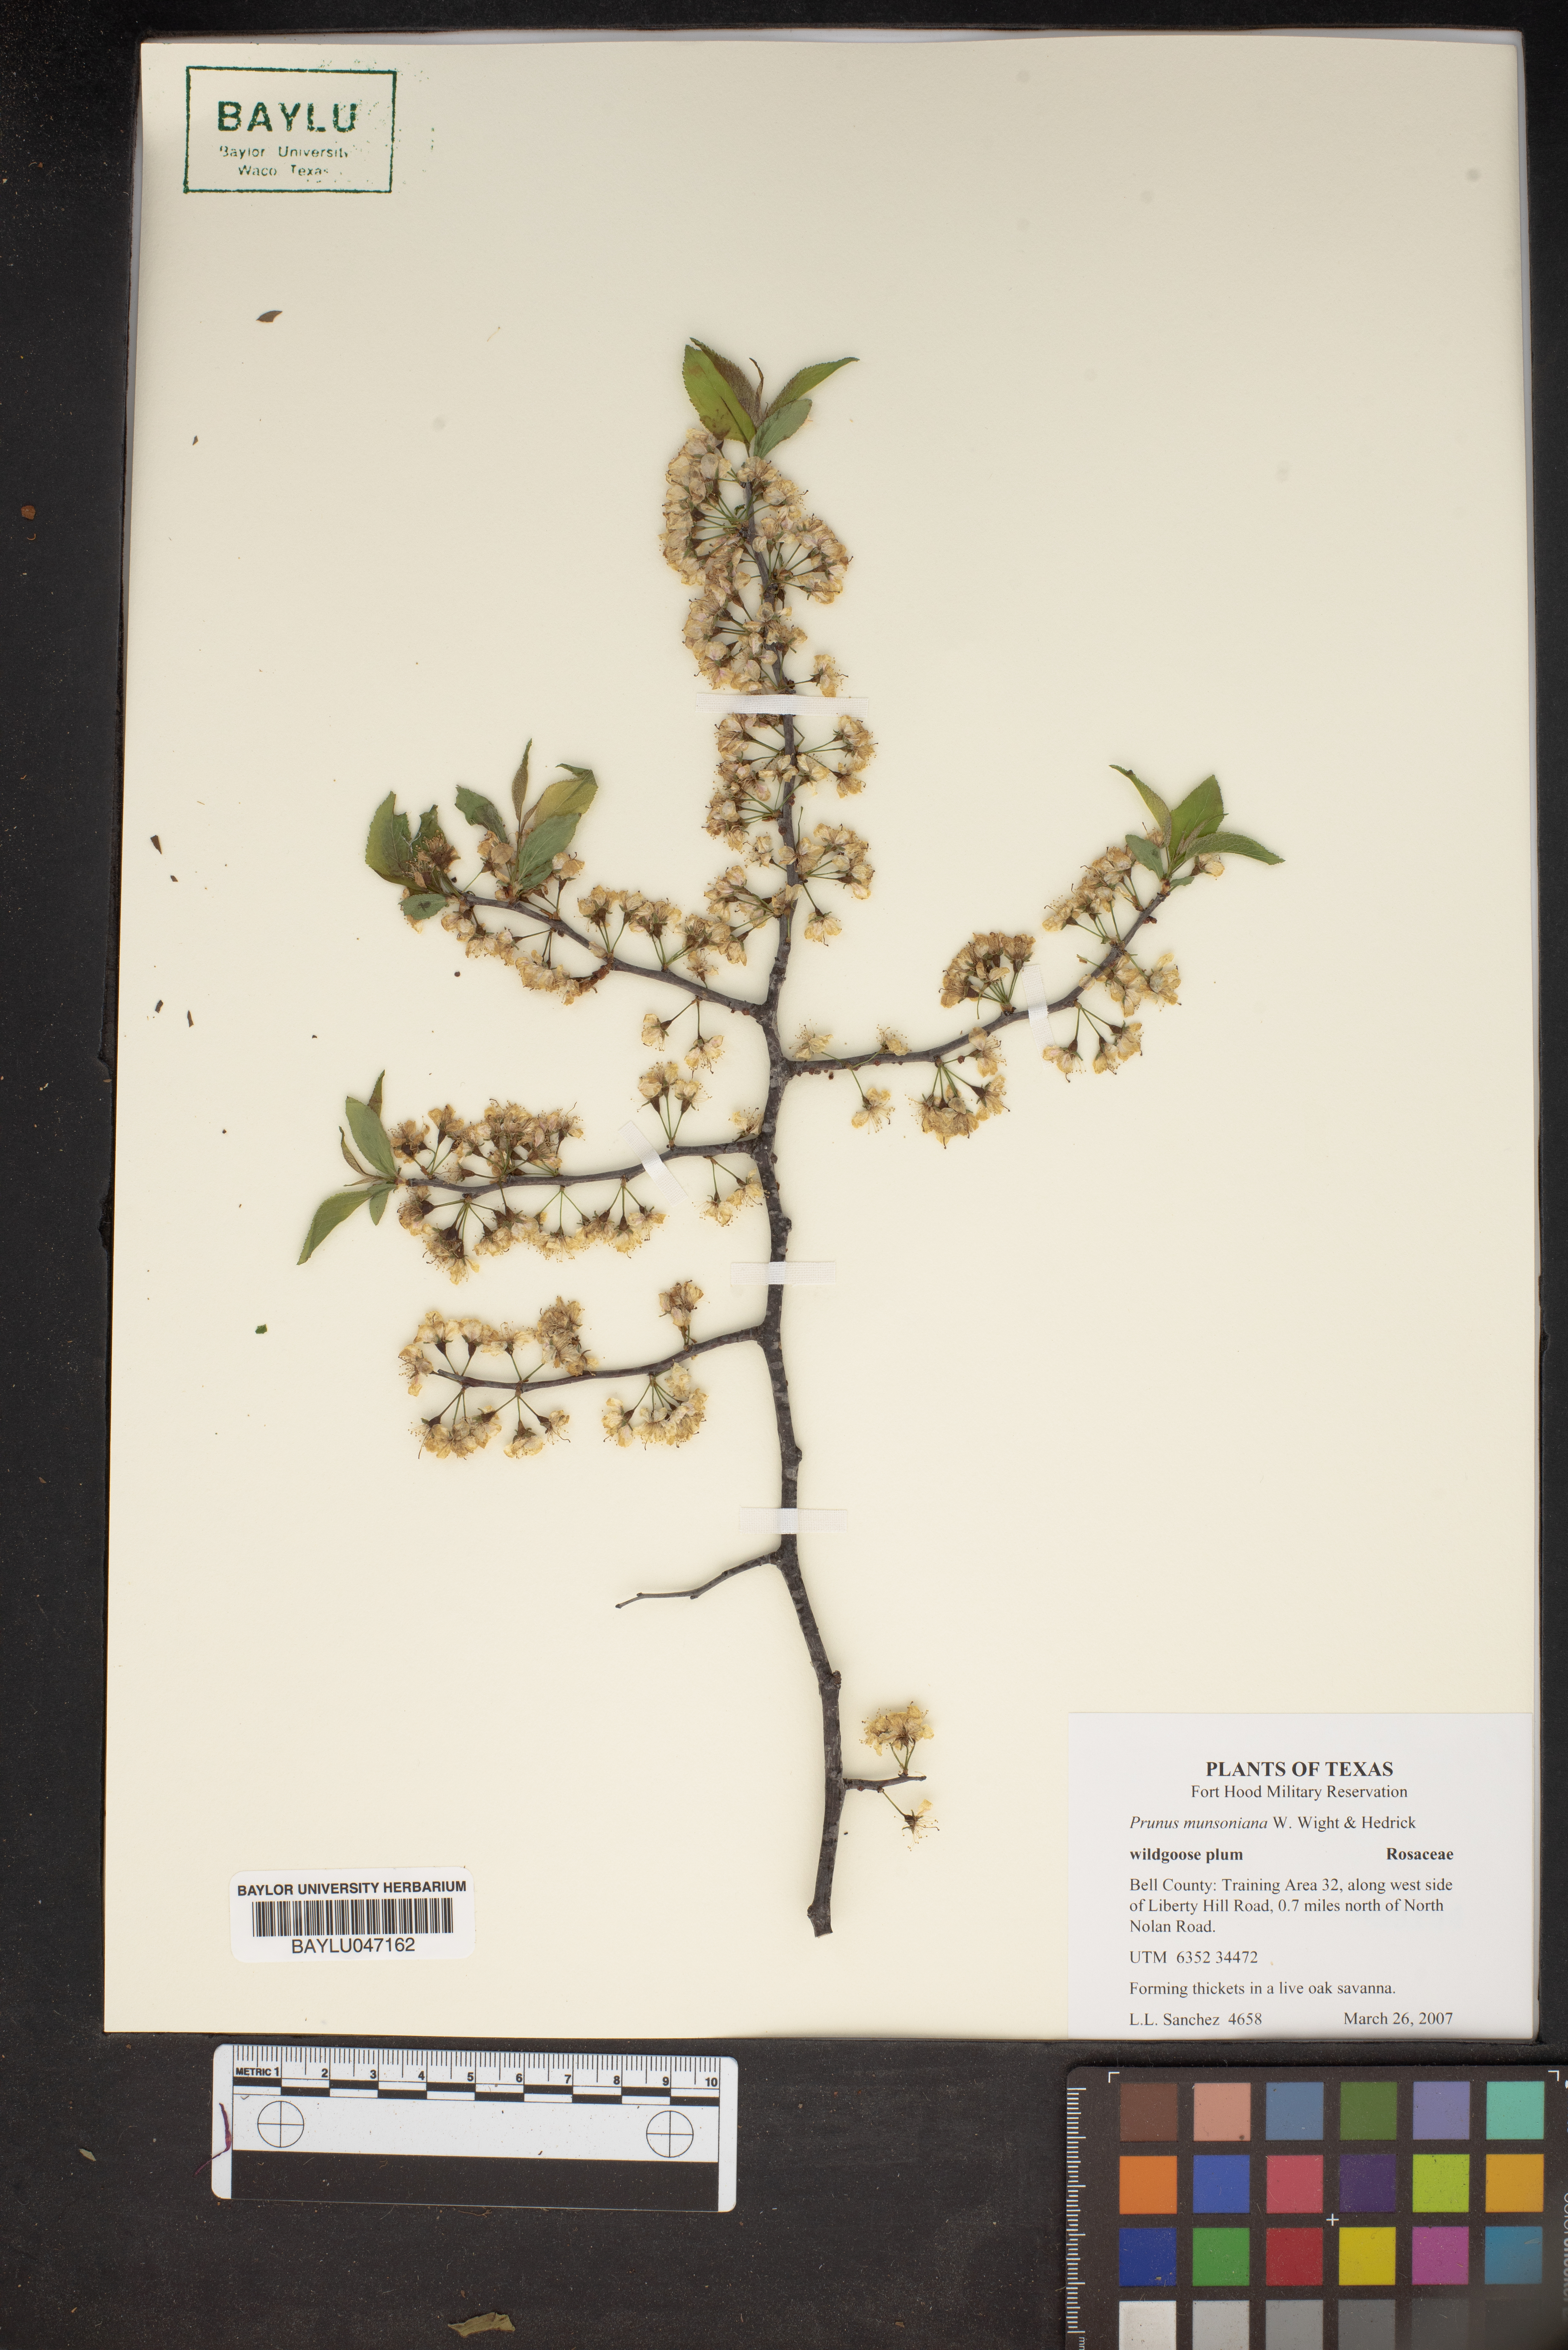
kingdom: Plantae
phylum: Tracheophyta
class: Magnoliopsida
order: Rosales
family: Rosaceae
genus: Prunus
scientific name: Prunus munsoniana
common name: Creek plum
